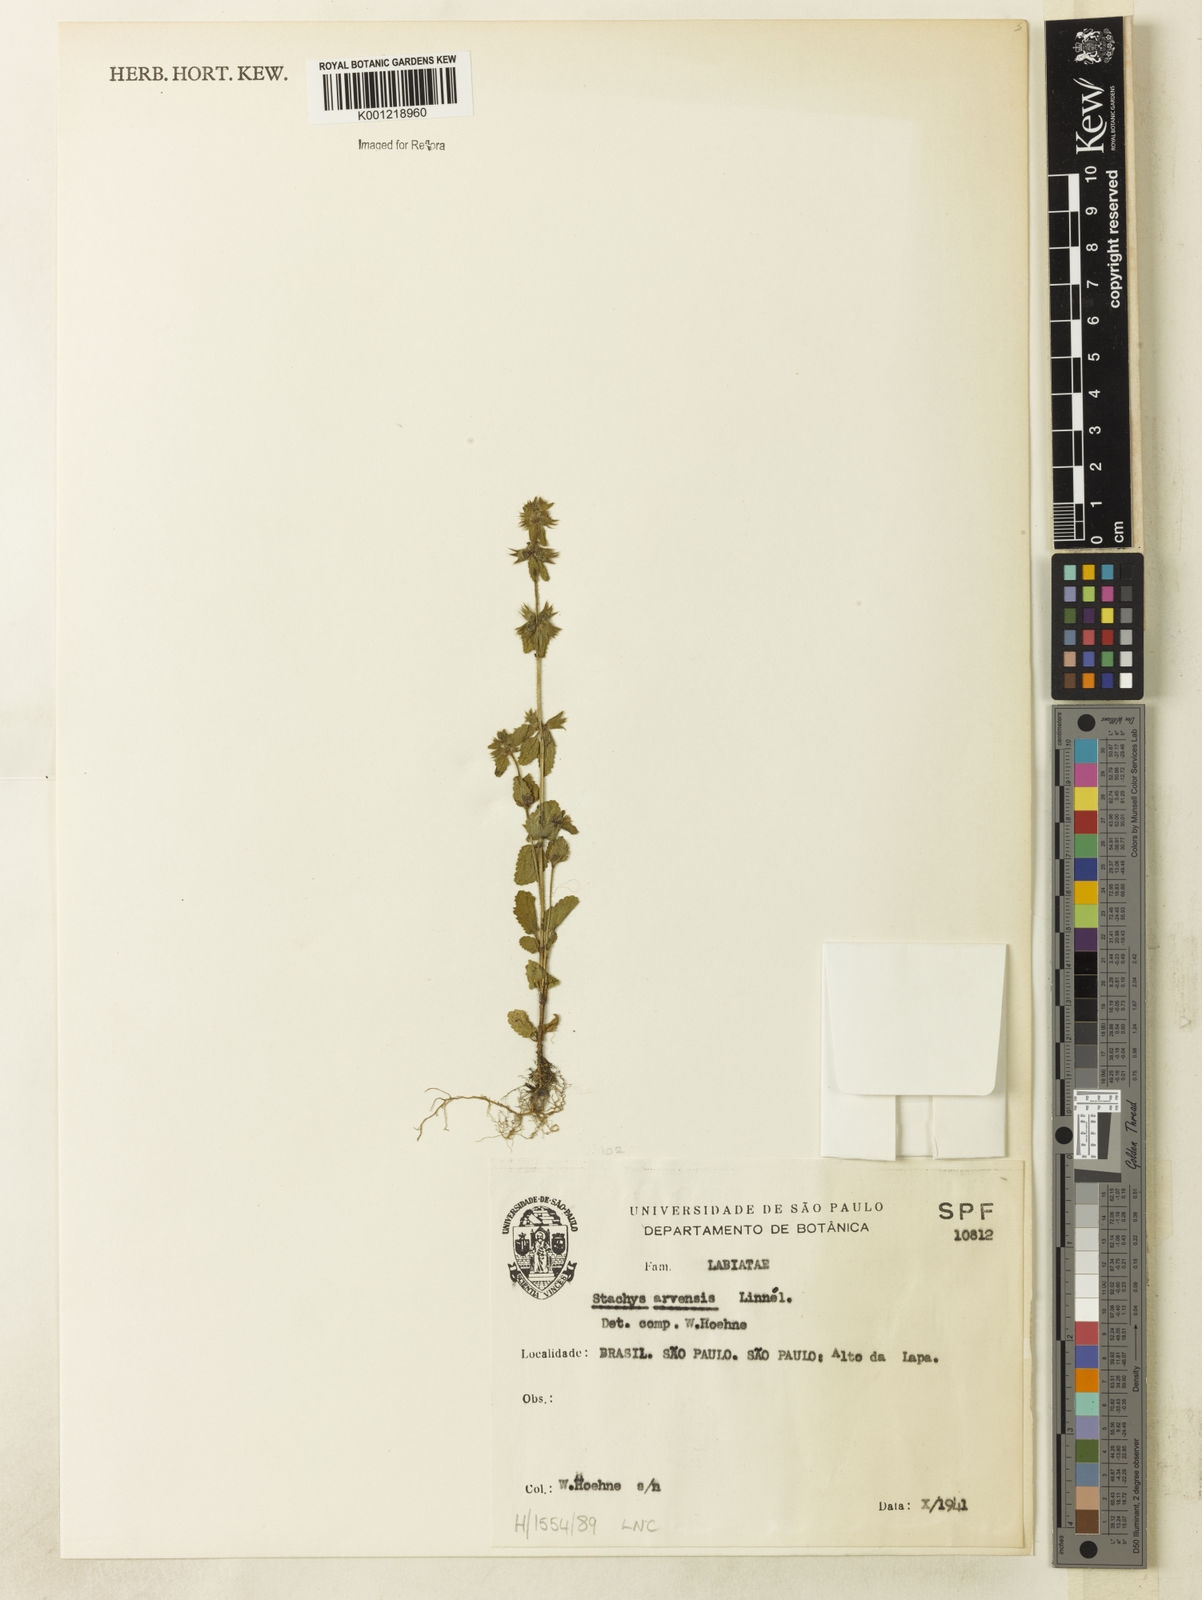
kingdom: Plantae
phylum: Tracheophyta
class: Magnoliopsida
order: Lamiales
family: Lamiaceae
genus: Stachys
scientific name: Stachys arvensis
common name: Field woundwort
